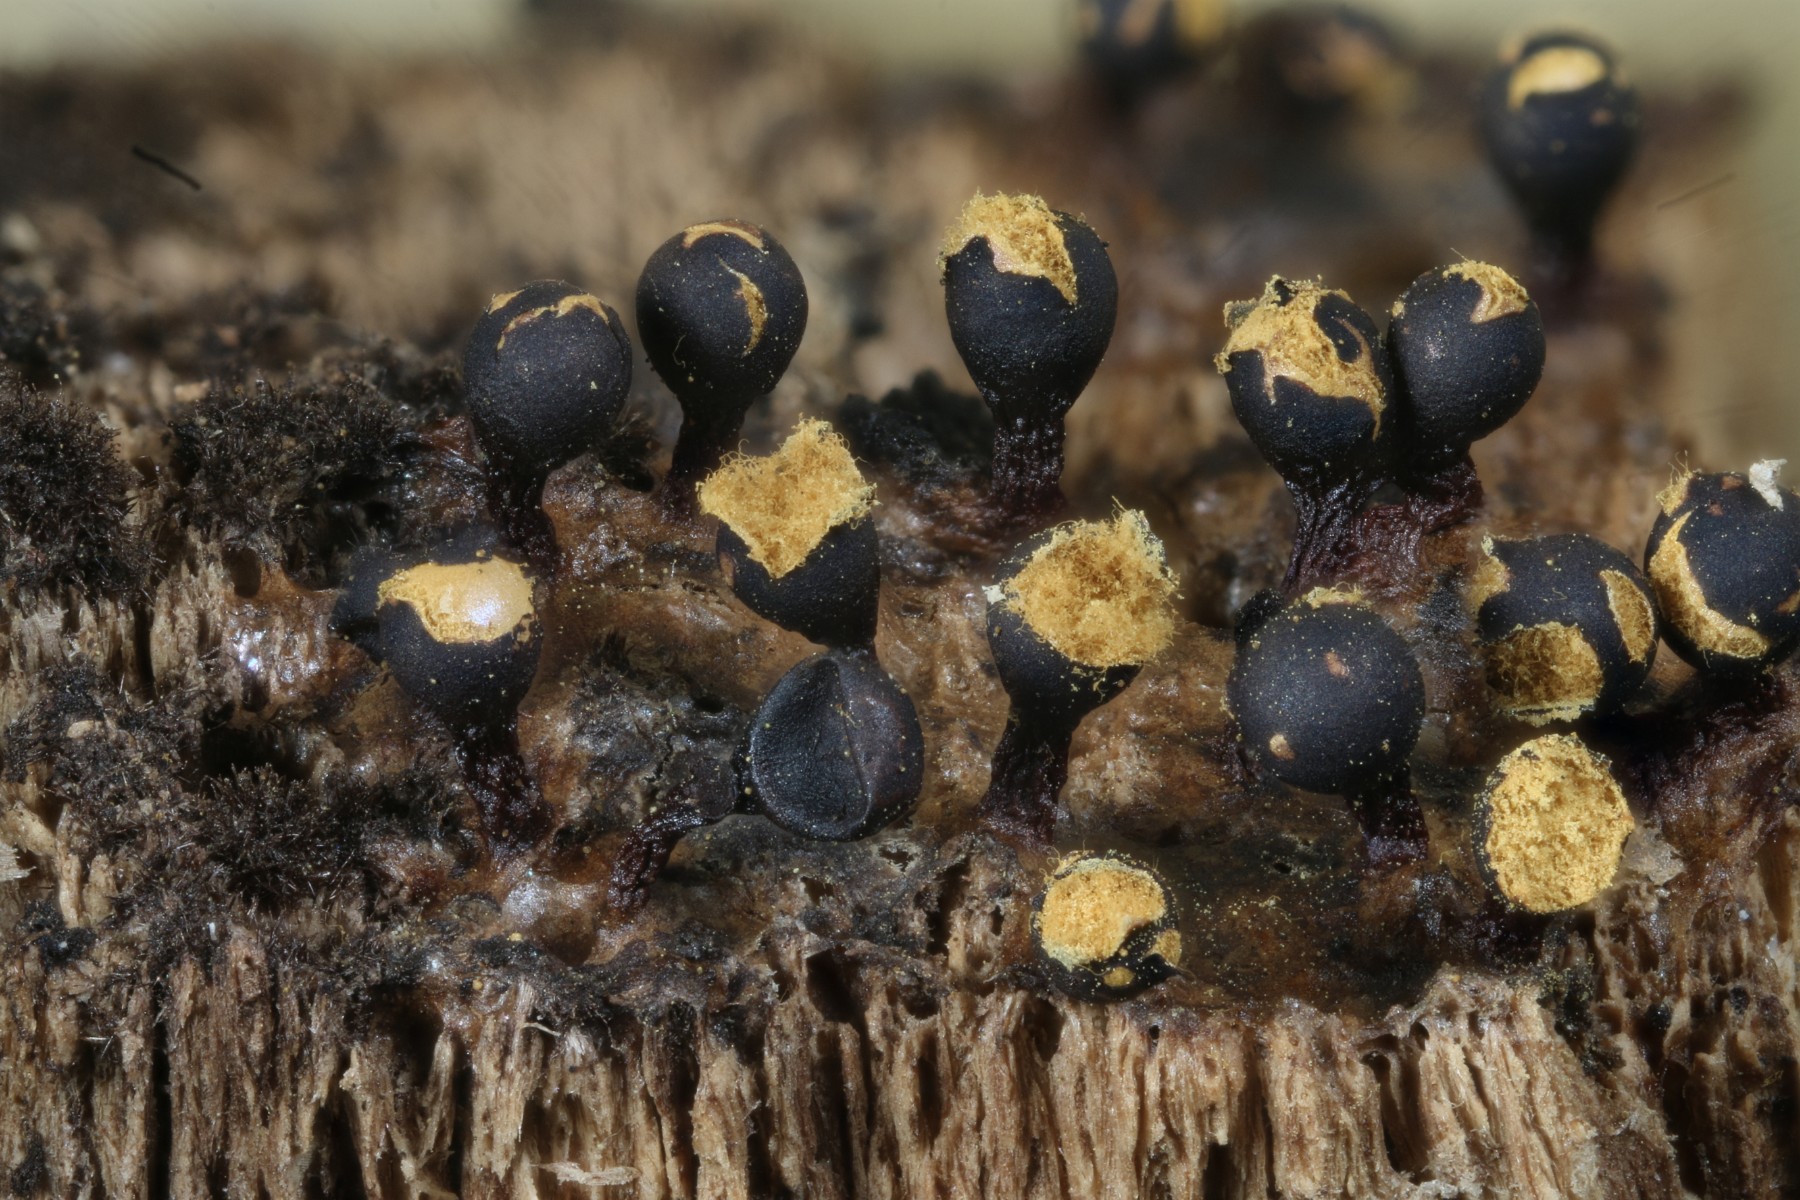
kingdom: Protozoa
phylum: Mycetozoa
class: Myxomycetes
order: Trichiales
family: Trichiaceae
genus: Trichia
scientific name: Trichia botrytis
